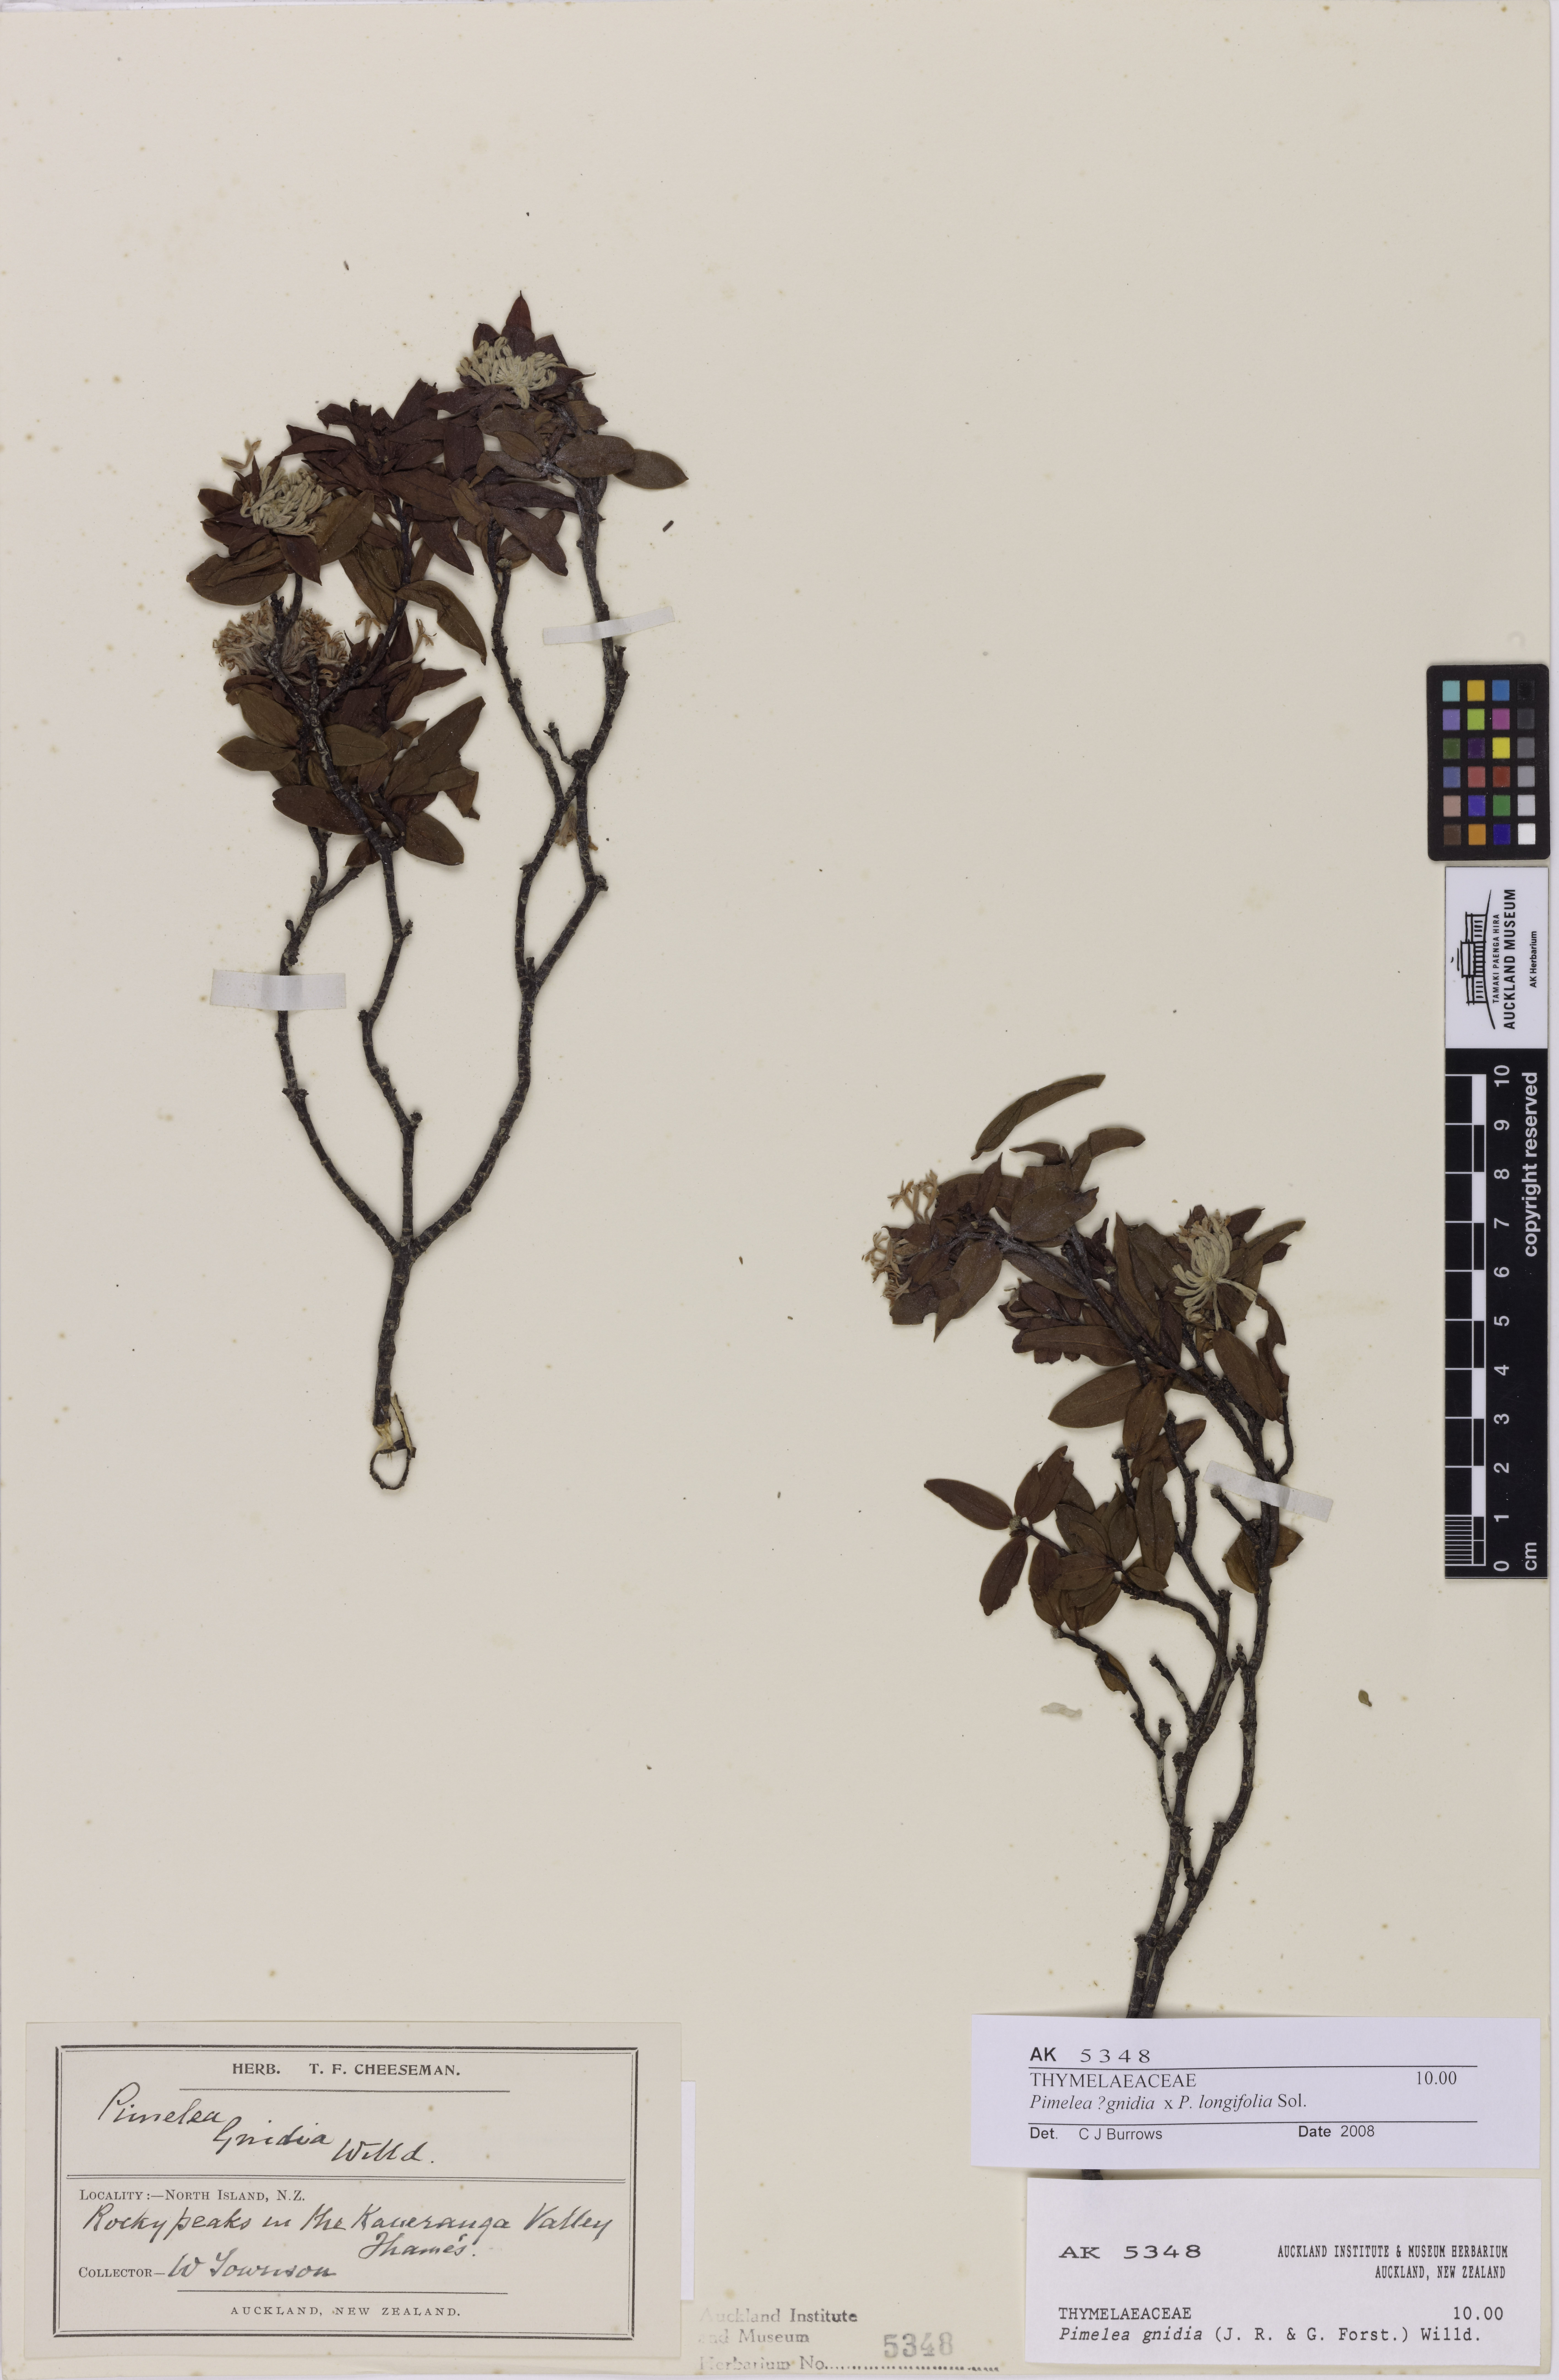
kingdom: Plantae
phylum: Tracheophyta
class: Magnoliopsida
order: Malvales
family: Thymelaeaceae
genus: Pimelea
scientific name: Pimelea
